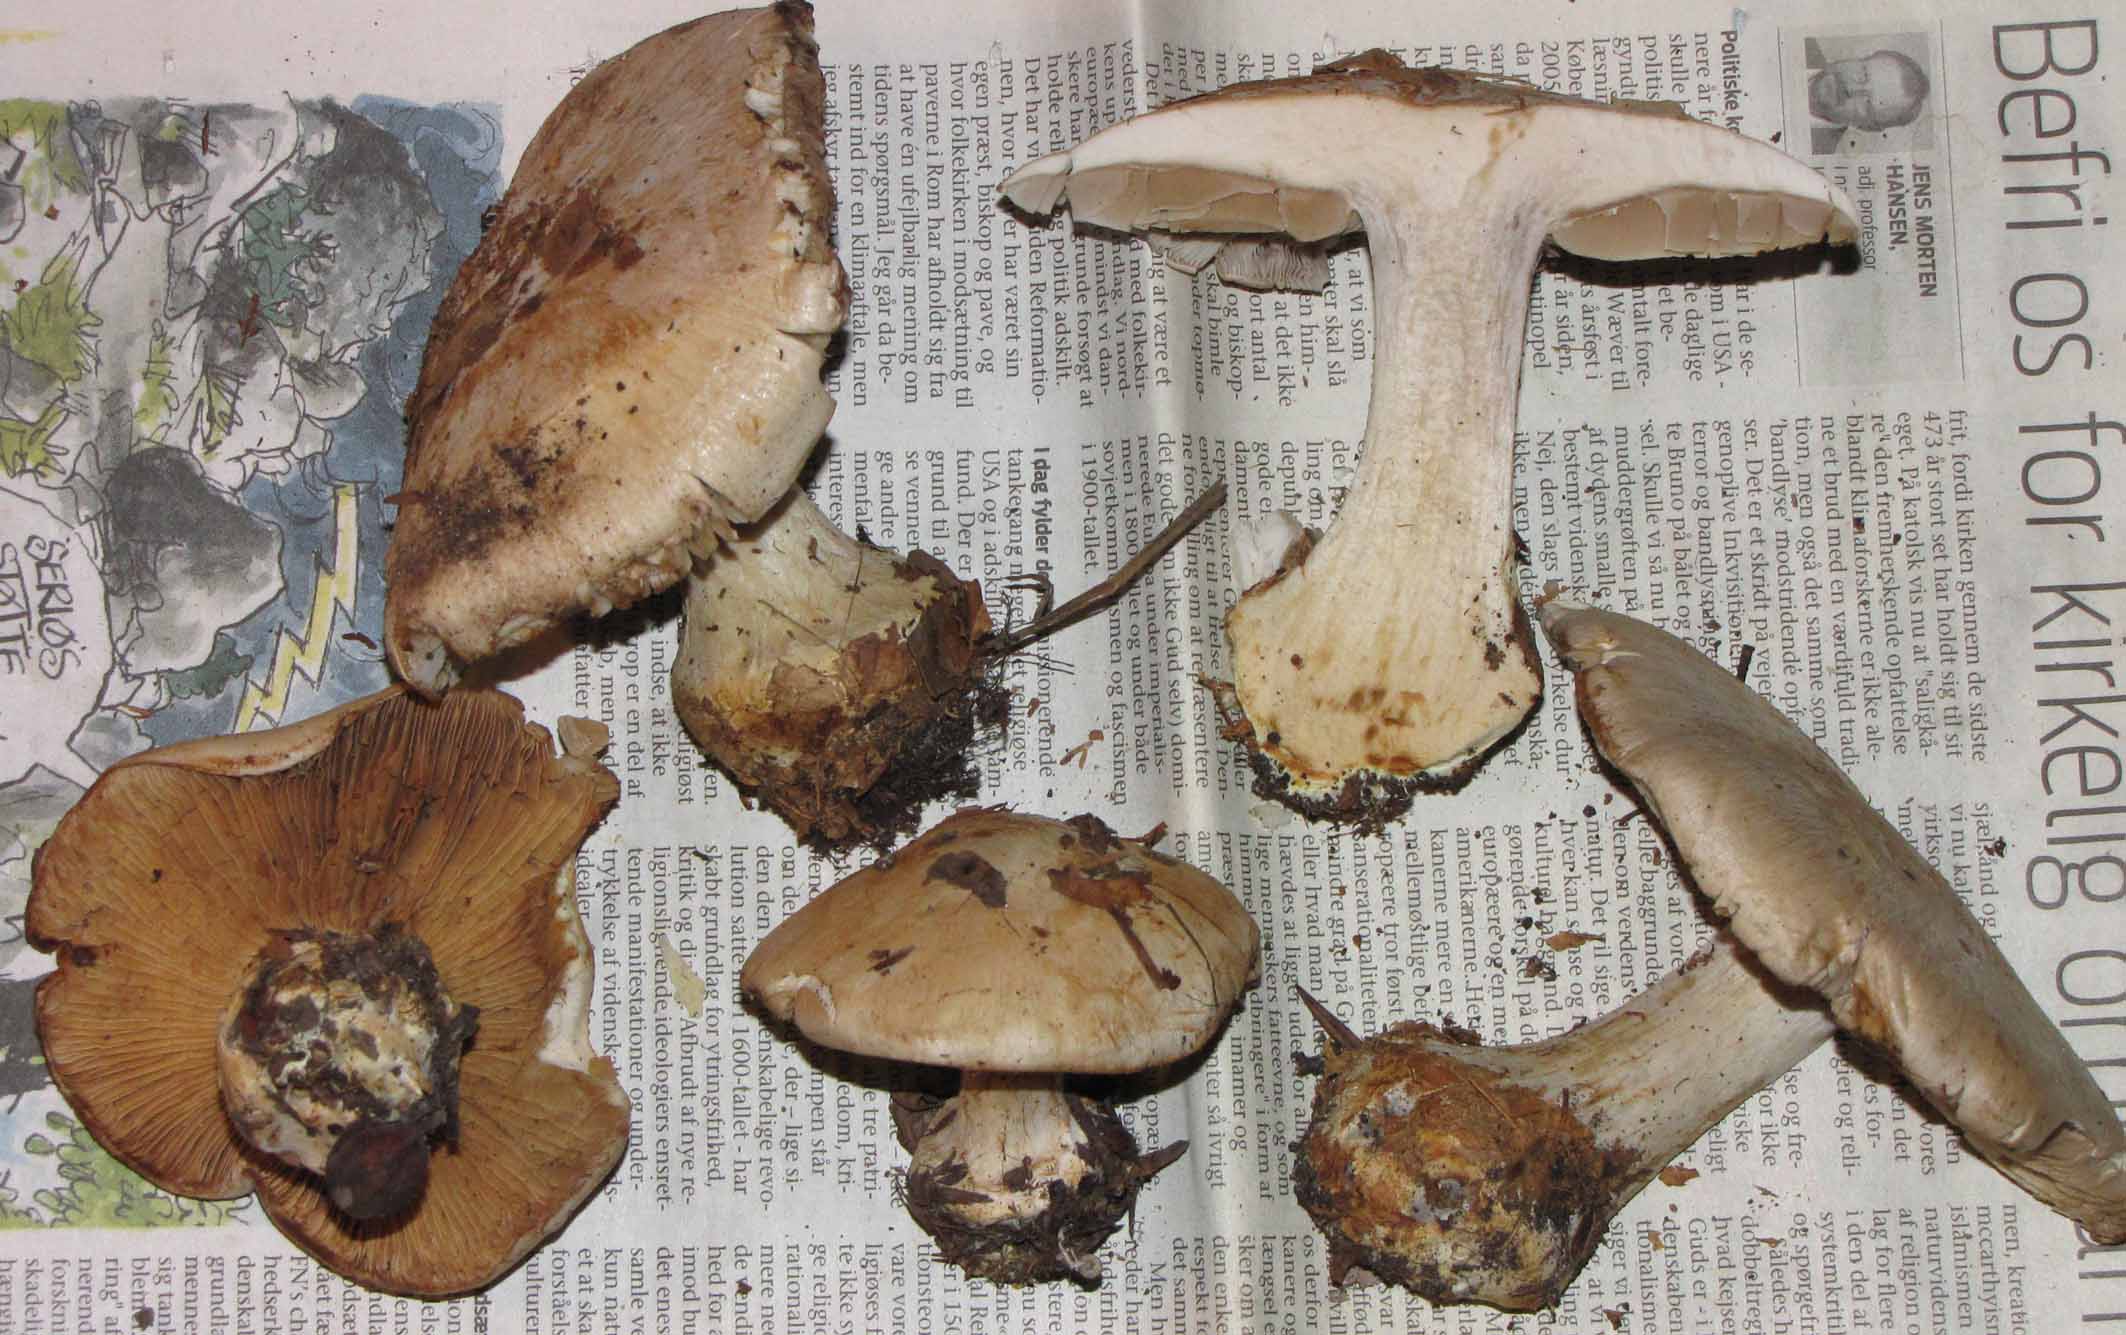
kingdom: Fungi
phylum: Basidiomycota
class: Agaricomycetes
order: Agaricales
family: Cortinariaceae
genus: Cortinarius
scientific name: Cortinarius foetens
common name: stribet slørhat
